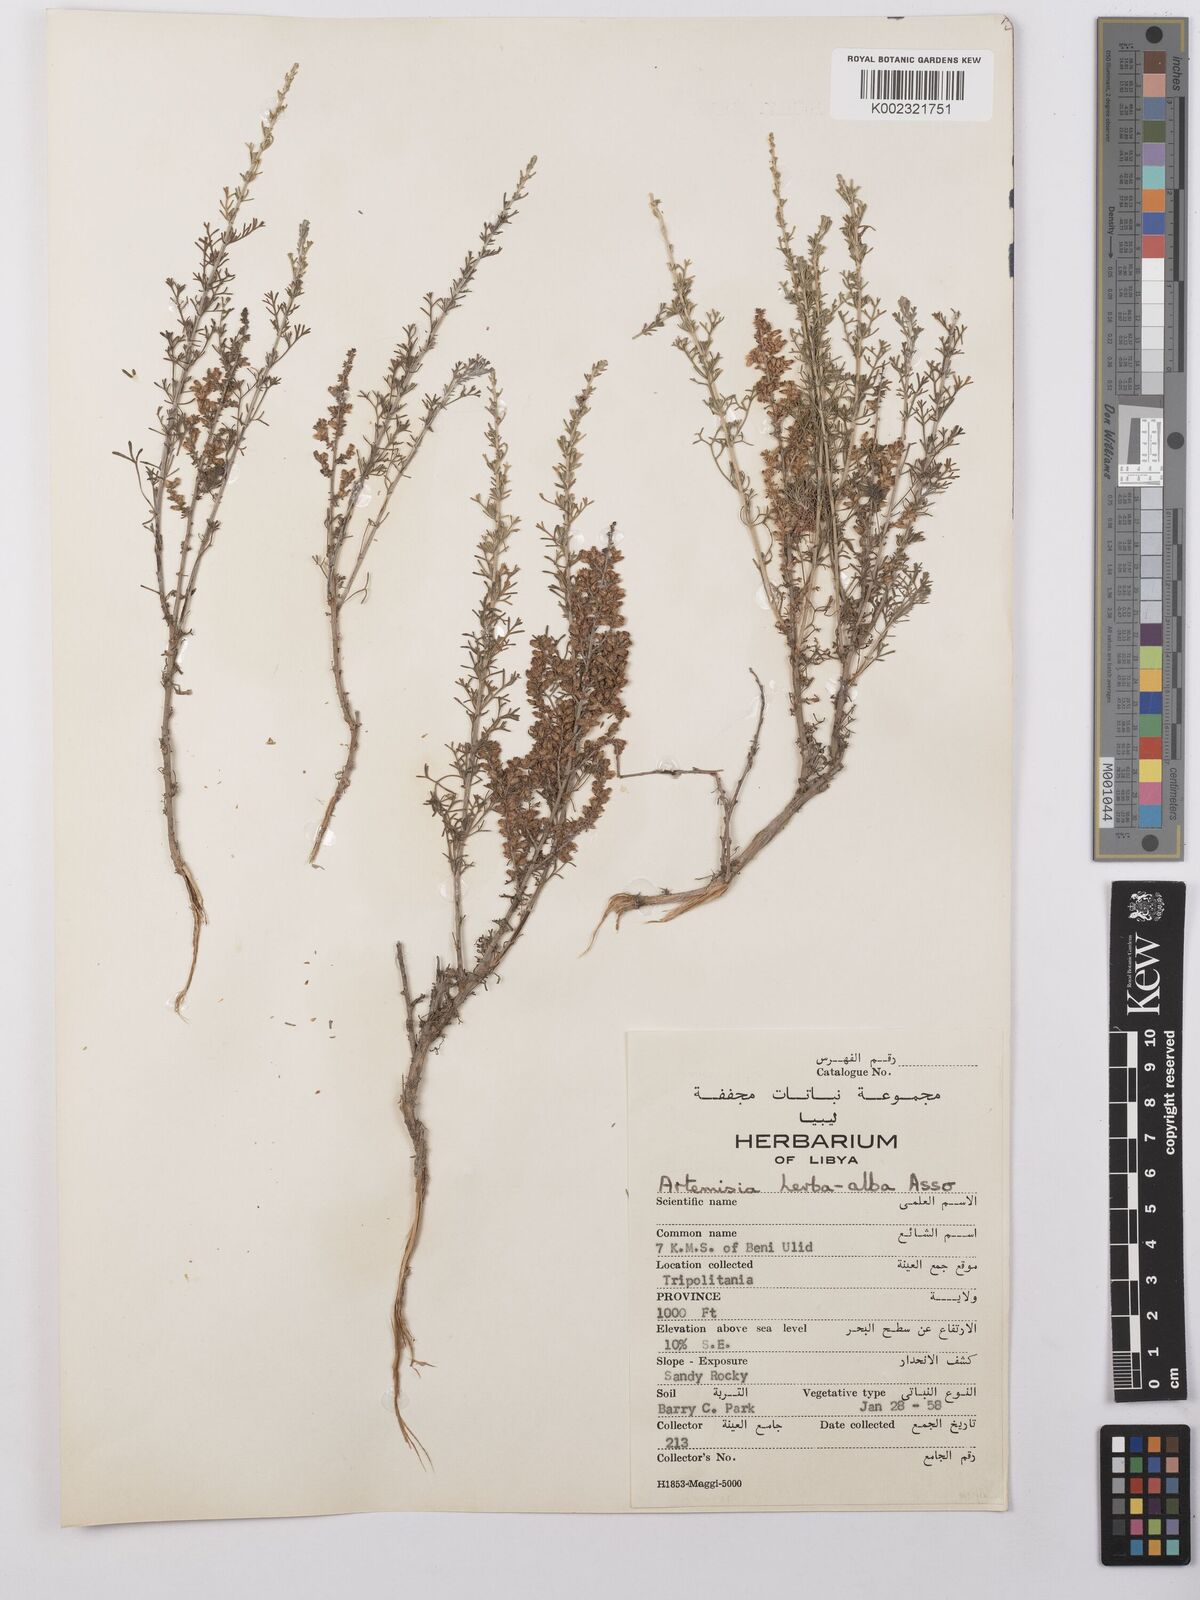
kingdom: Plantae
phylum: Tracheophyta
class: Magnoliopsida
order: Asterales
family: Asteraceae
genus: Artemisia
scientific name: Artemisia herba-alba
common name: White wormwood
